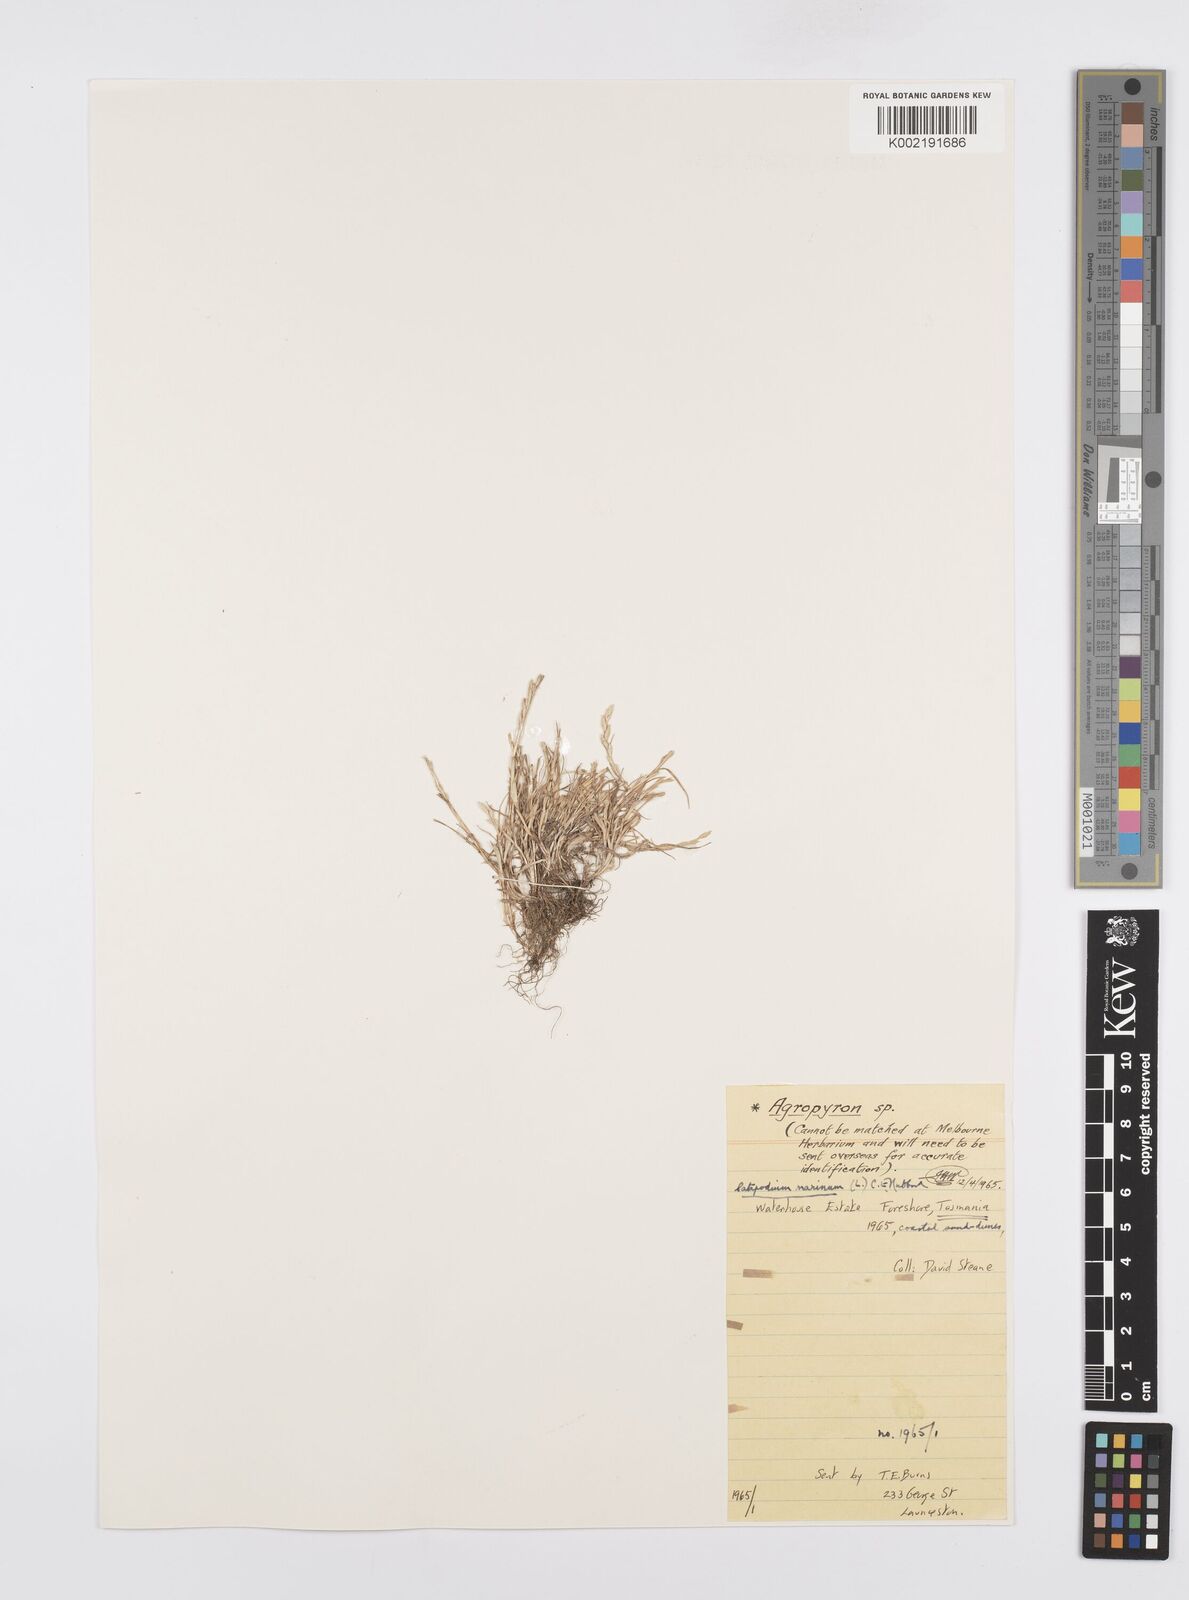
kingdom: Plantae
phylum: Tracheophyta
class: Liliopsida
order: Poales
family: Poaceae
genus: Catapodium
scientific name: Catapodium marinum
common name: Sea fern-grass
